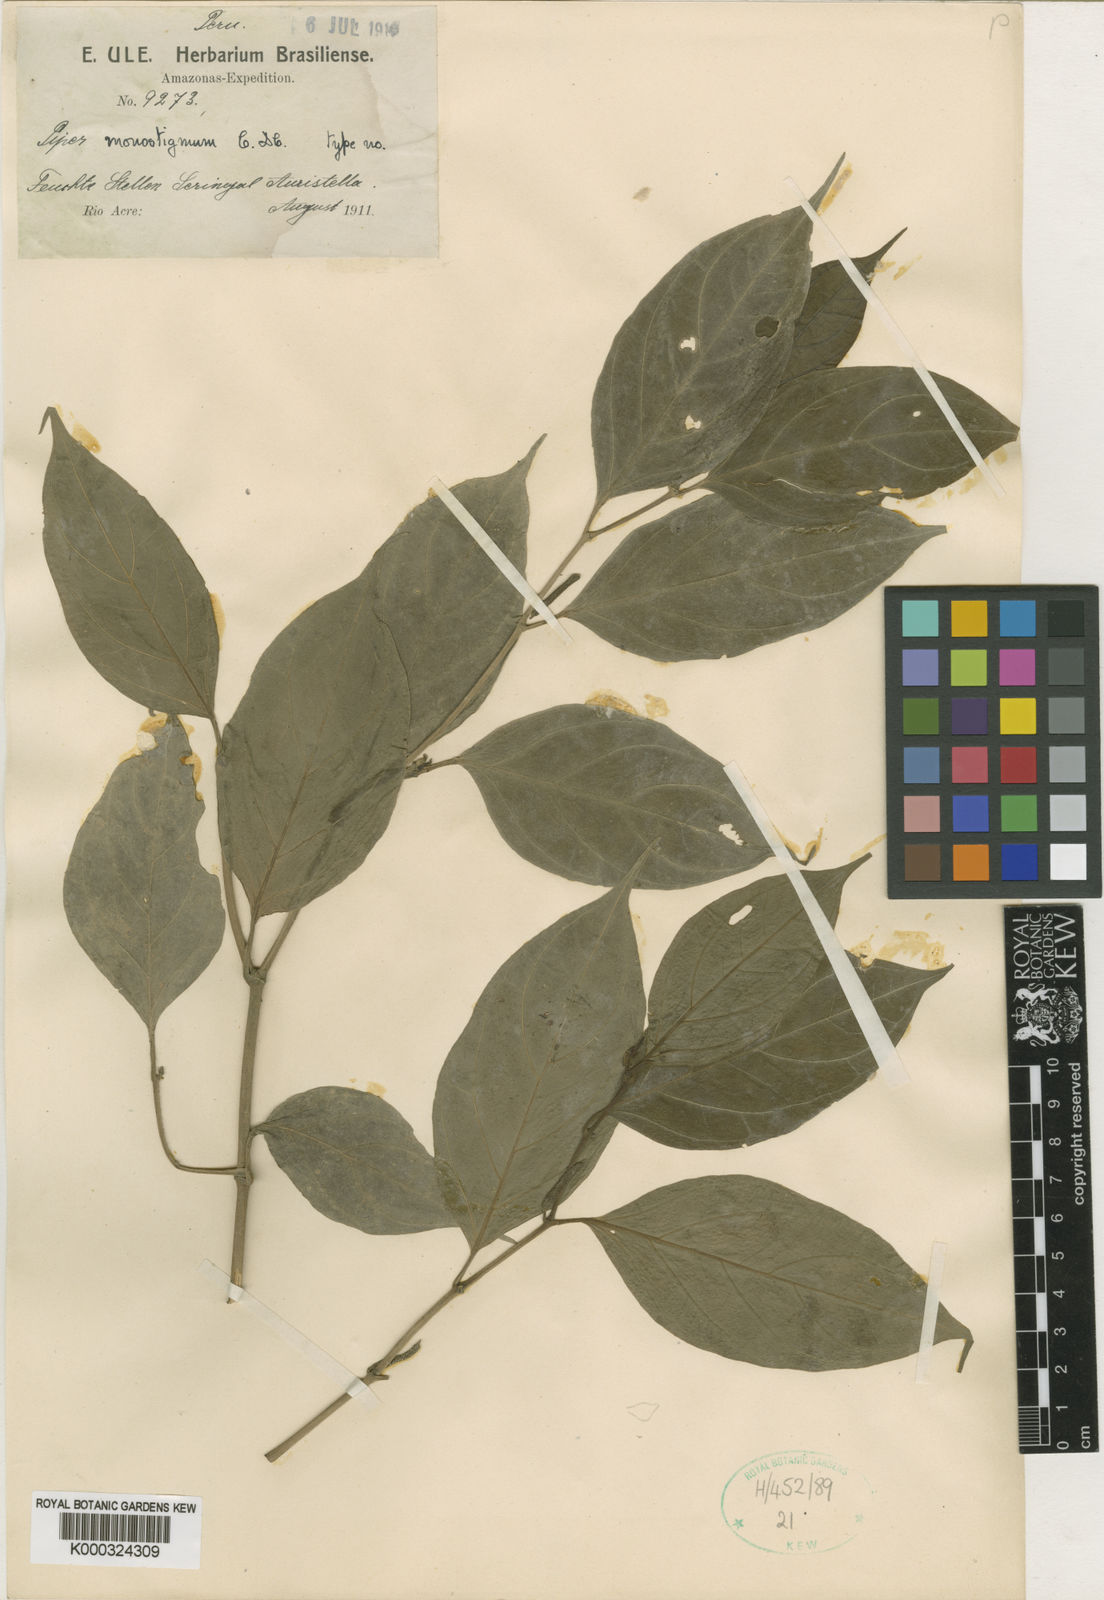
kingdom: Plantae
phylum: Tracheophyta
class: Magnoliopsida
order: Piperales
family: Piperaceae
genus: Piper
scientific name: Piper monostigmum
